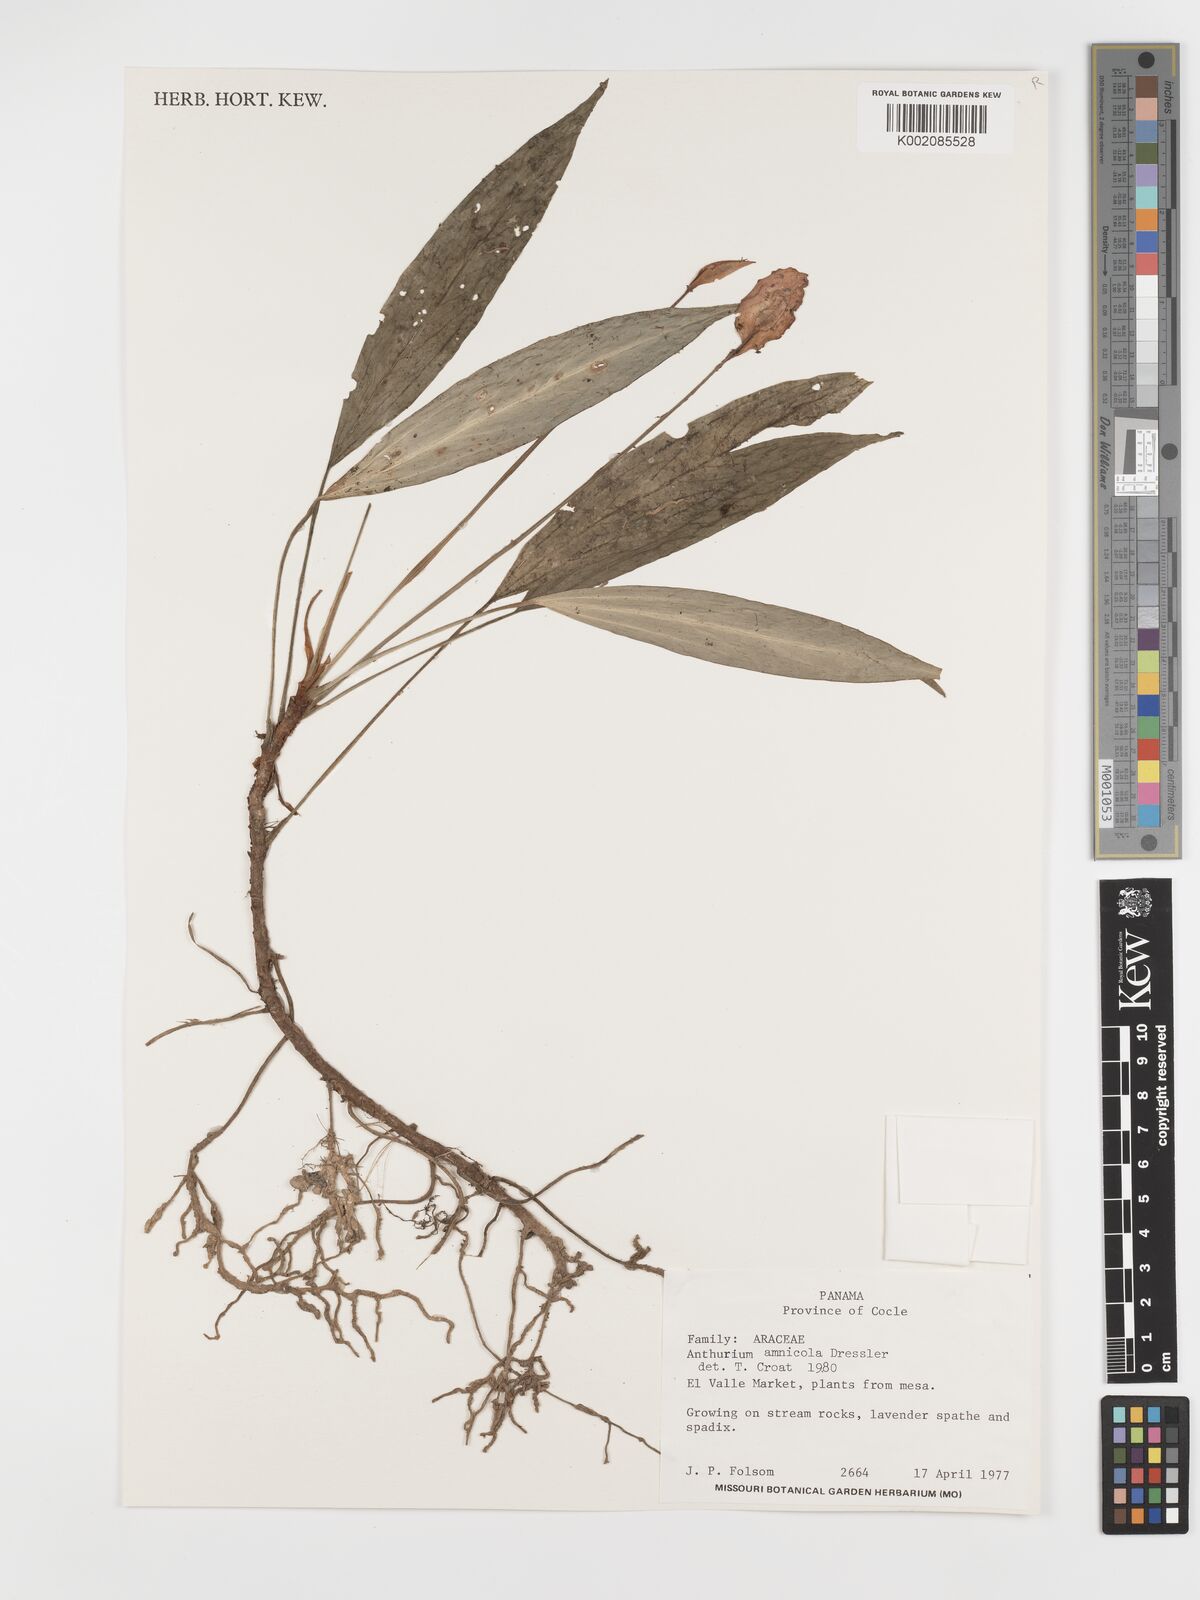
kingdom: Plantae
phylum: Tracheophyta
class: Liliopsida
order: Alismatales
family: Araceae
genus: Anthurium
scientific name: Anthurium amnicola
